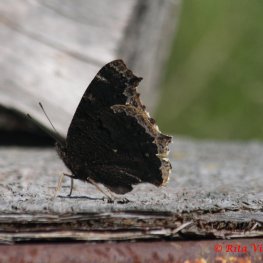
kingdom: Animalia
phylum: Arthropoda
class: Insecta
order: Lepidoptera
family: Nymphalidae
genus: Nymphalis
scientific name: Nymphalis antiopa
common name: Mourning Cloak
